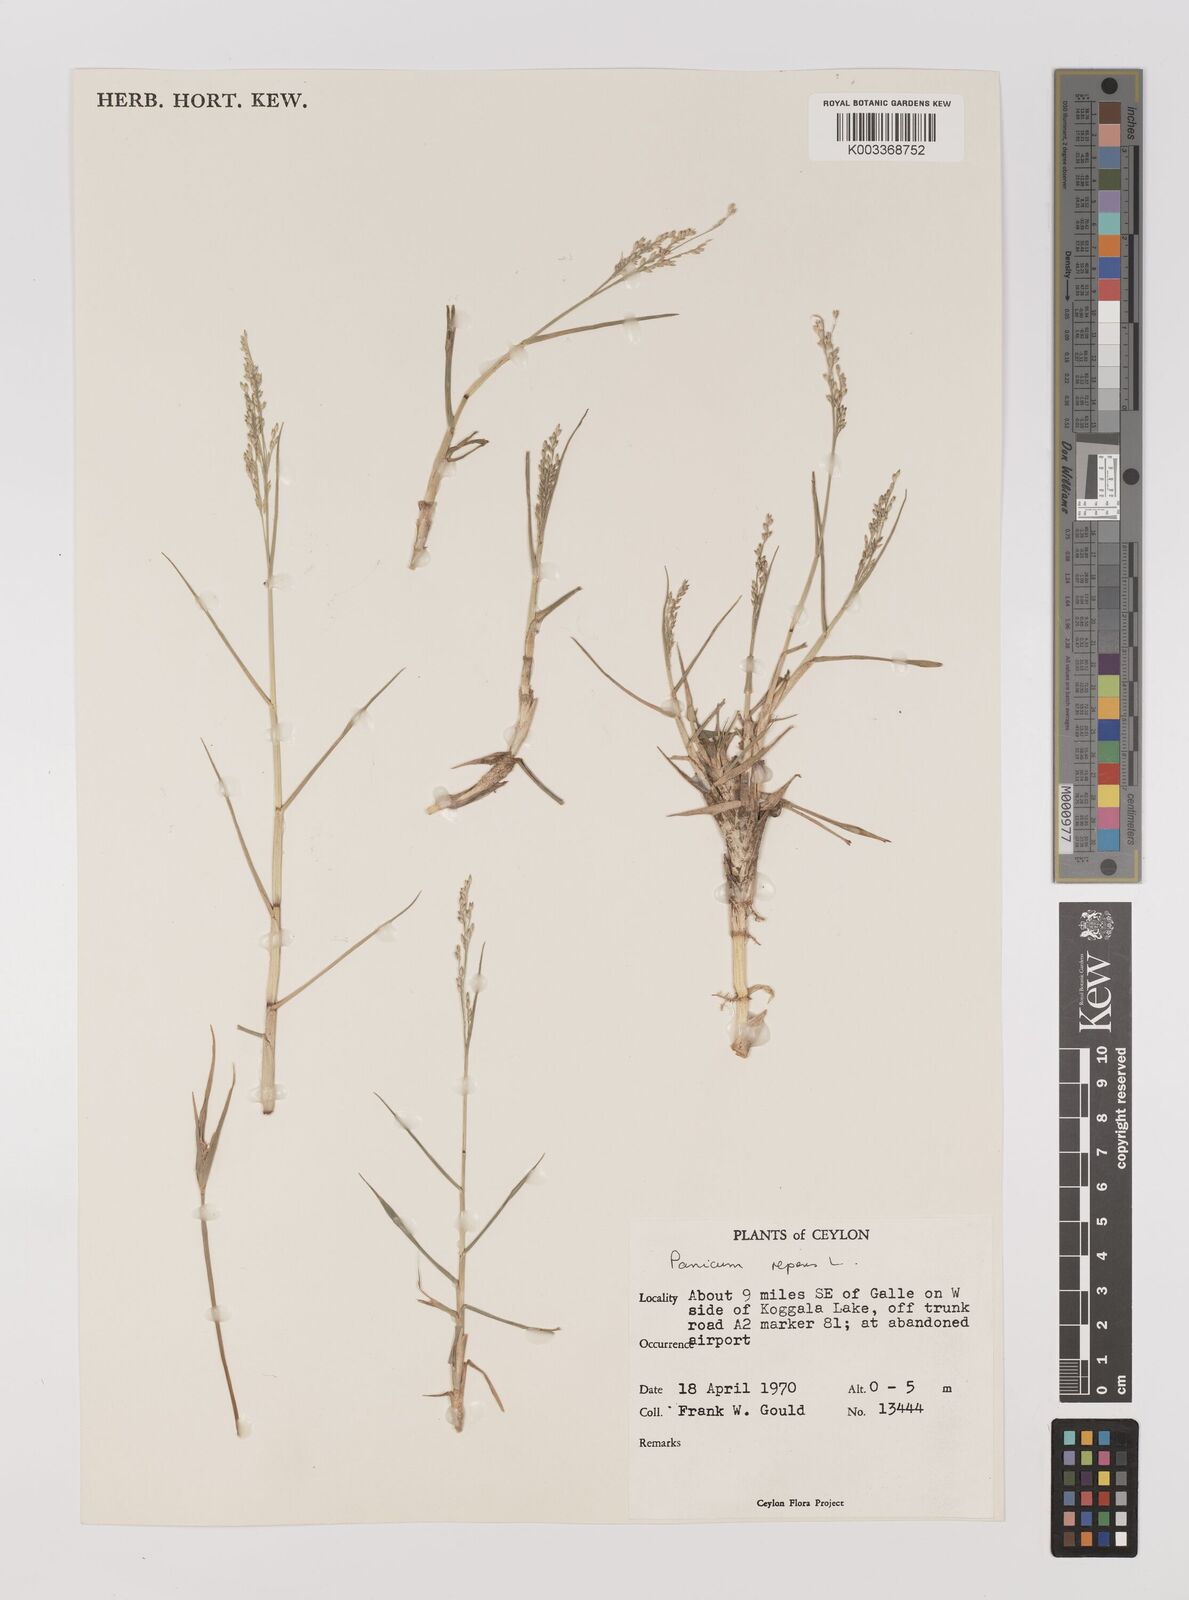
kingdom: Plantae
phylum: Tracheophyta
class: Liliopsida
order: Poales
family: Poaceae
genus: Panicum
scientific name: Panicum repens
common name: Torpedo grass
